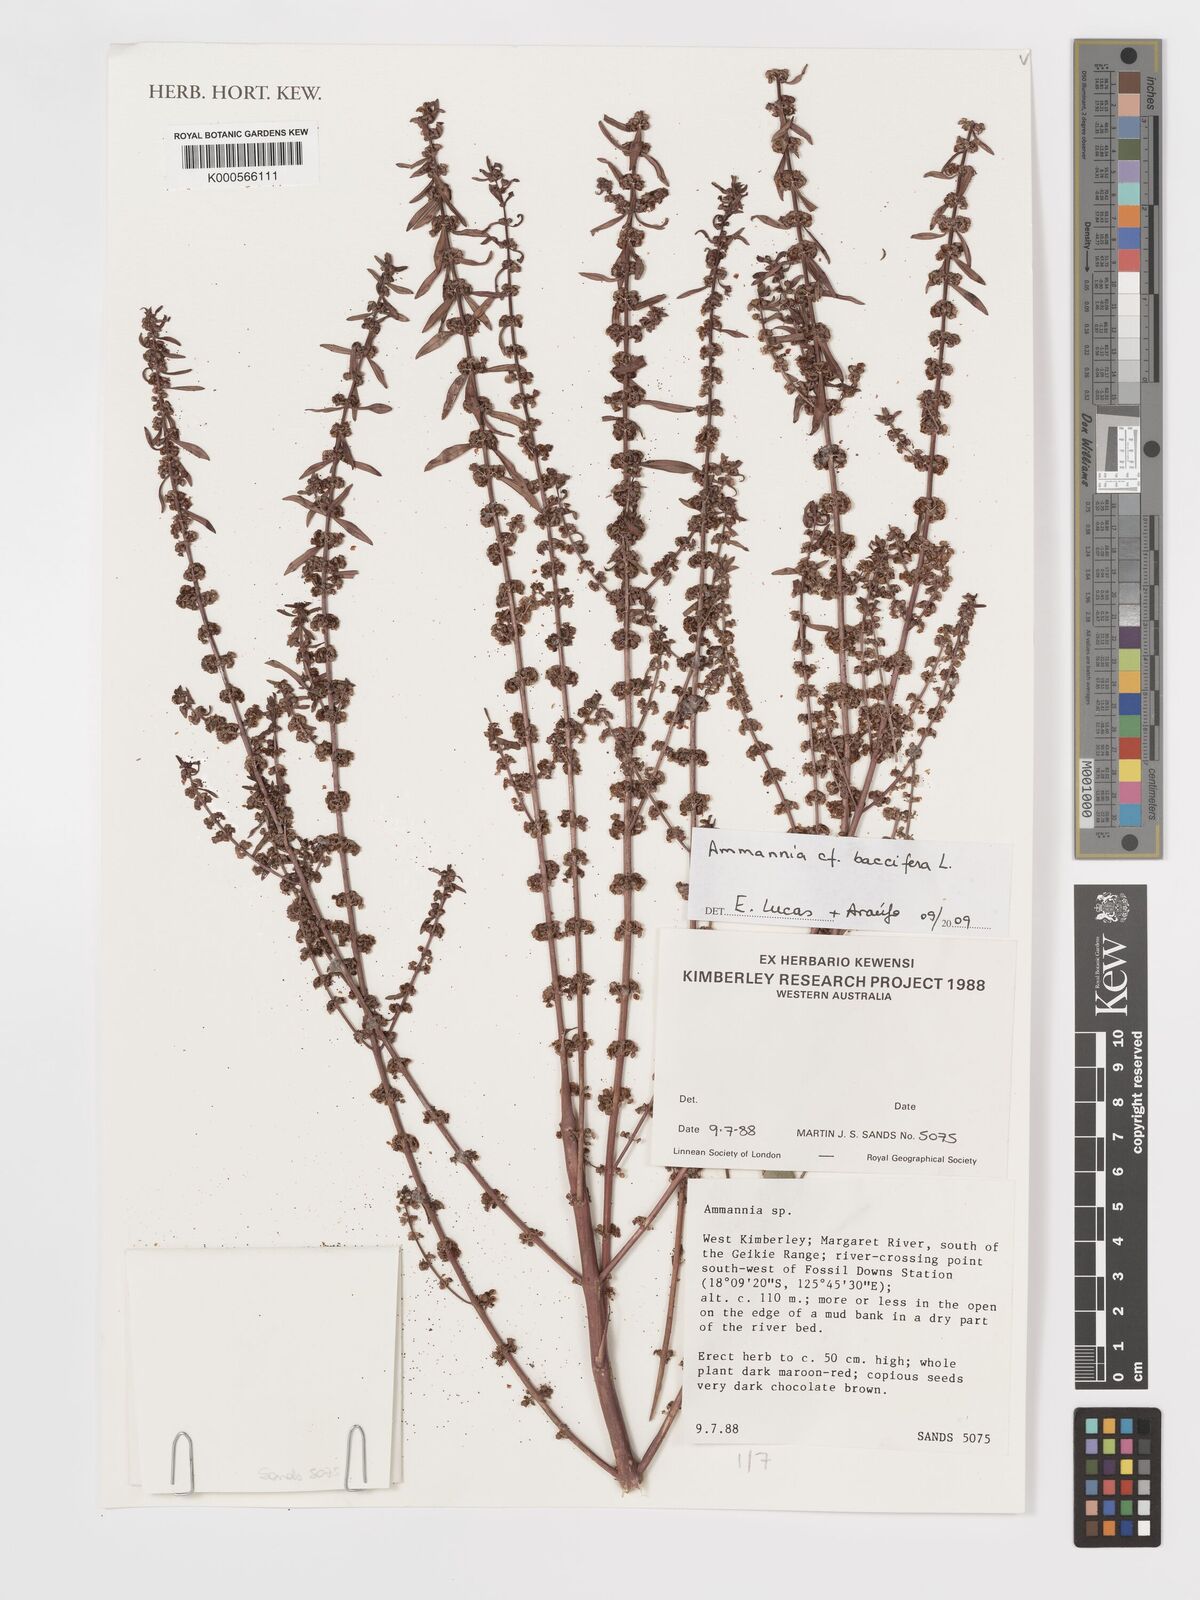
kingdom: Plantae
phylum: Tracheophyta
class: Magnoliopsida
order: Myrtales
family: Lythraceae
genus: Ammannia
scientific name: Ammannia baccifera
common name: Blistering ammania
